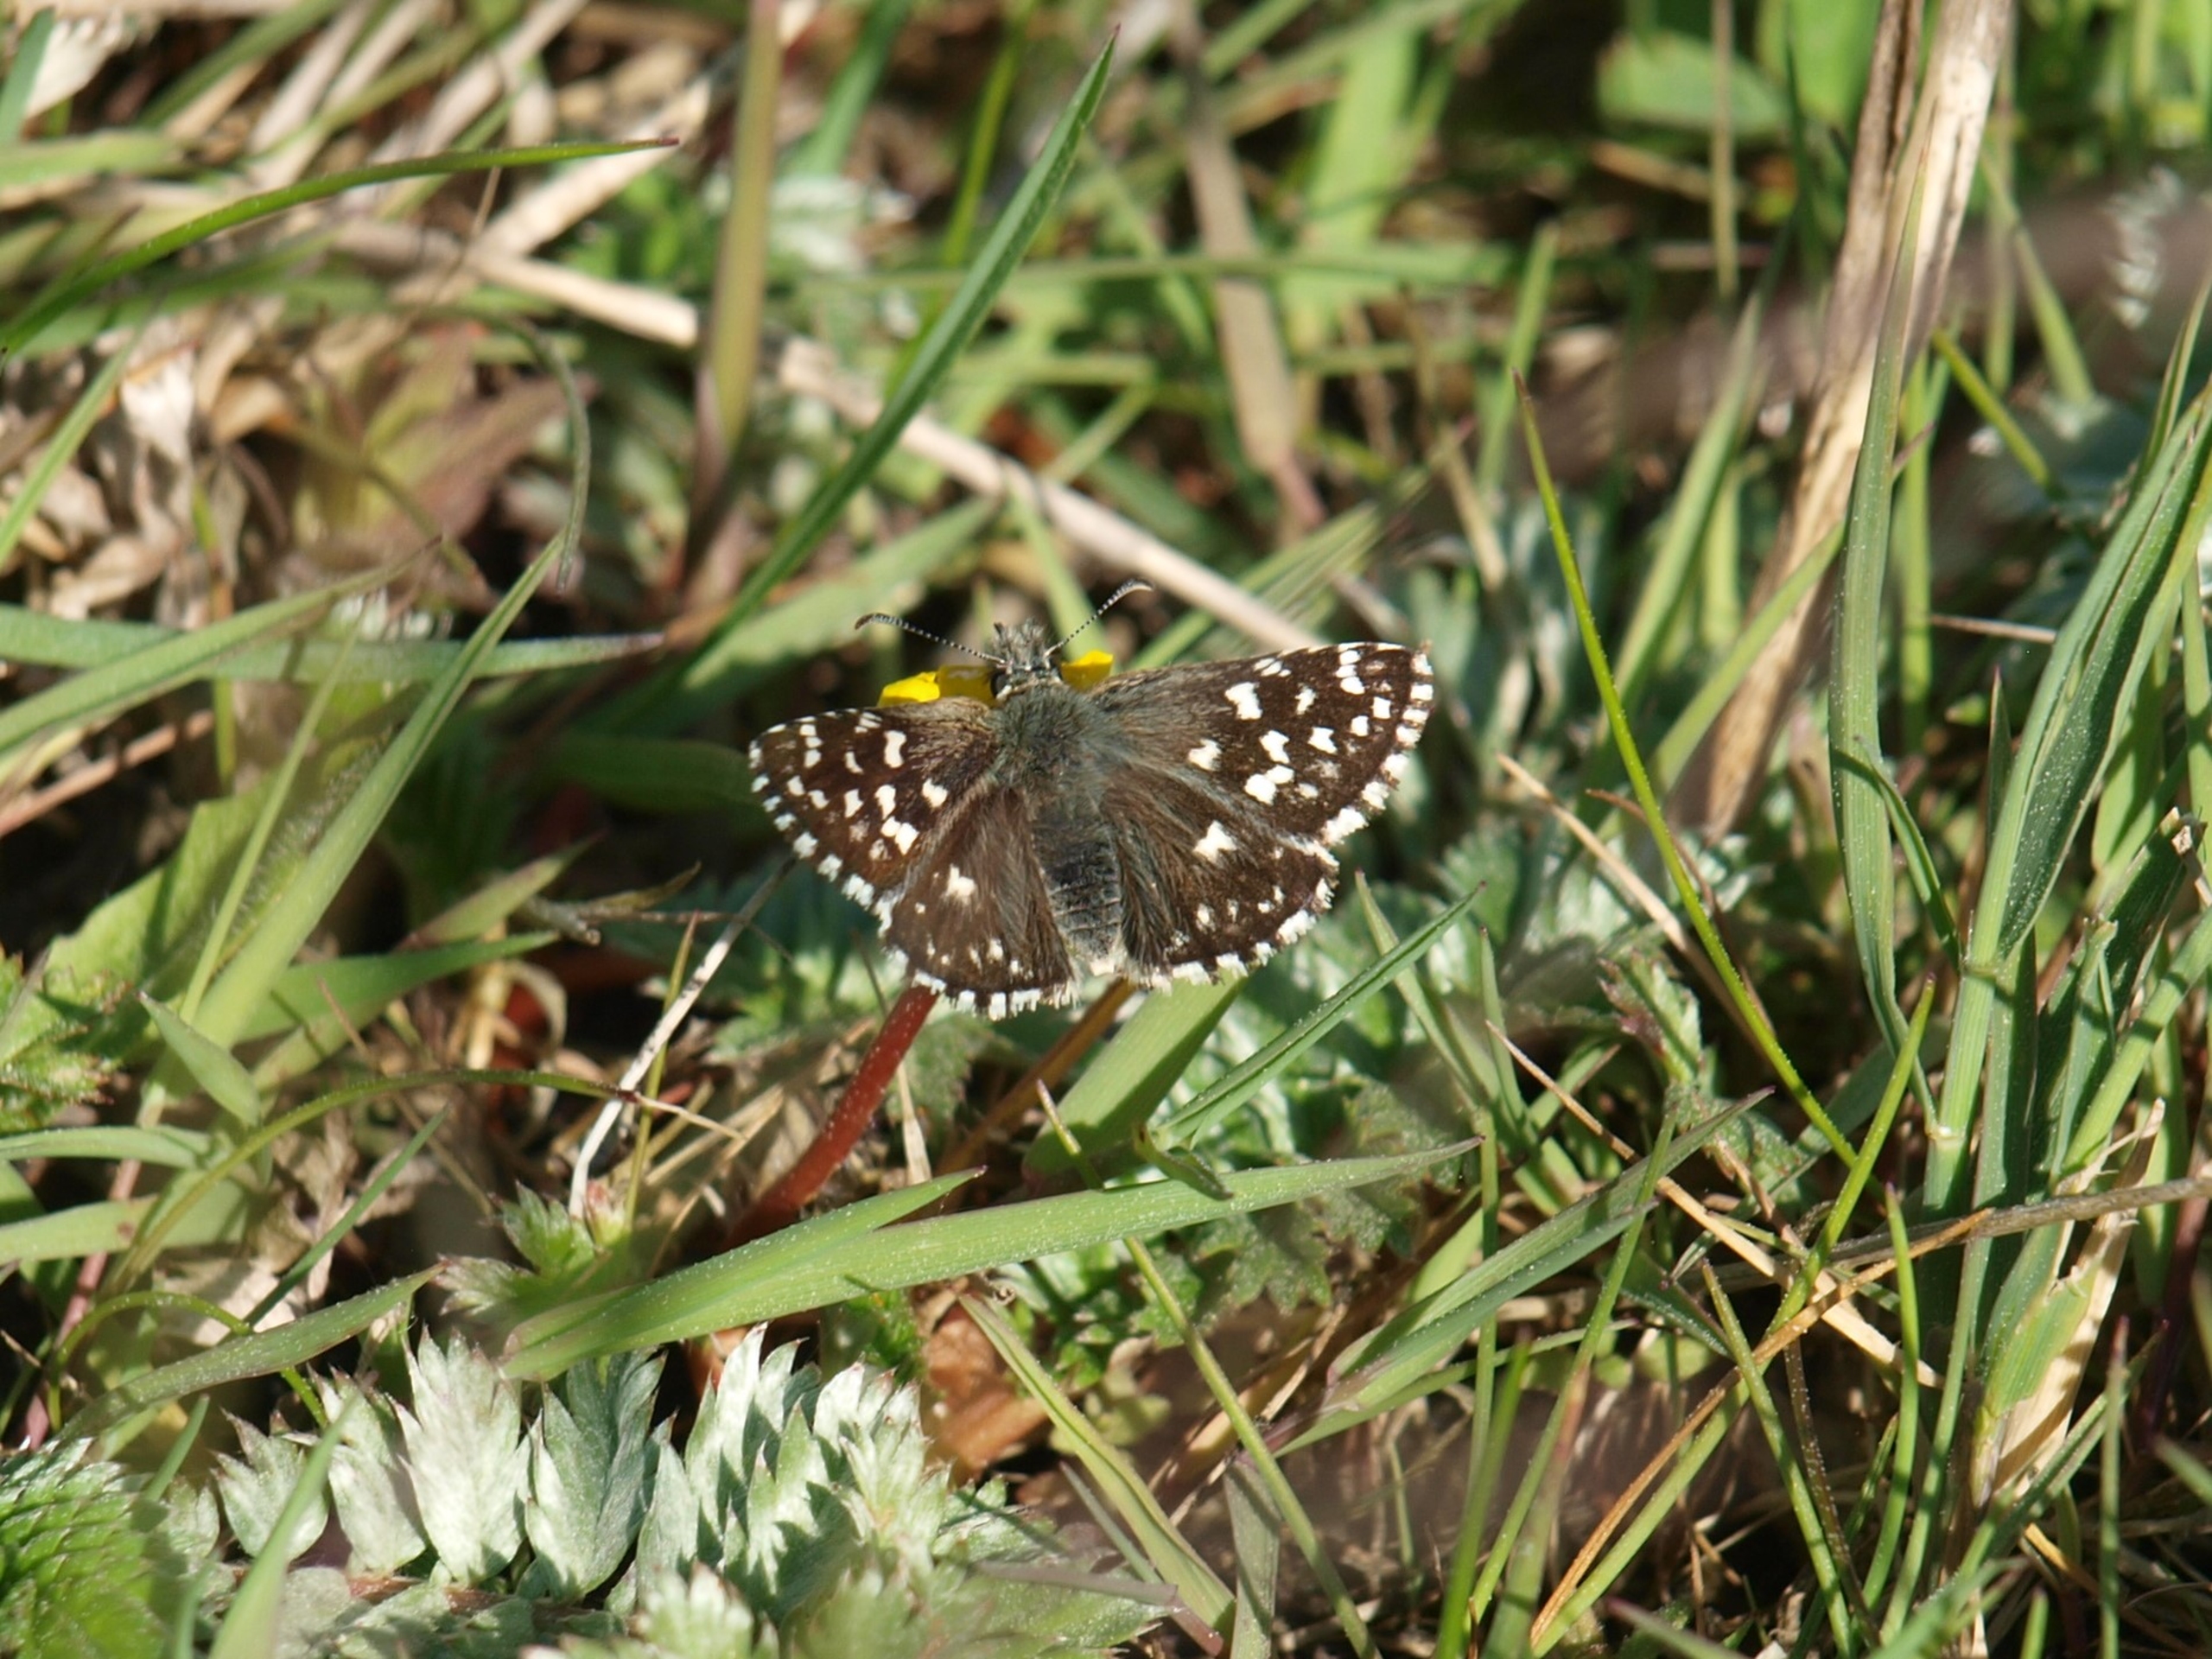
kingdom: Animalia
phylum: Arthropoda
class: Insecta
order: Lepidoptera
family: Hesperiidae
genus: Pyrgus
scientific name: Pyrgus malvae
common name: Spættet bredpande
